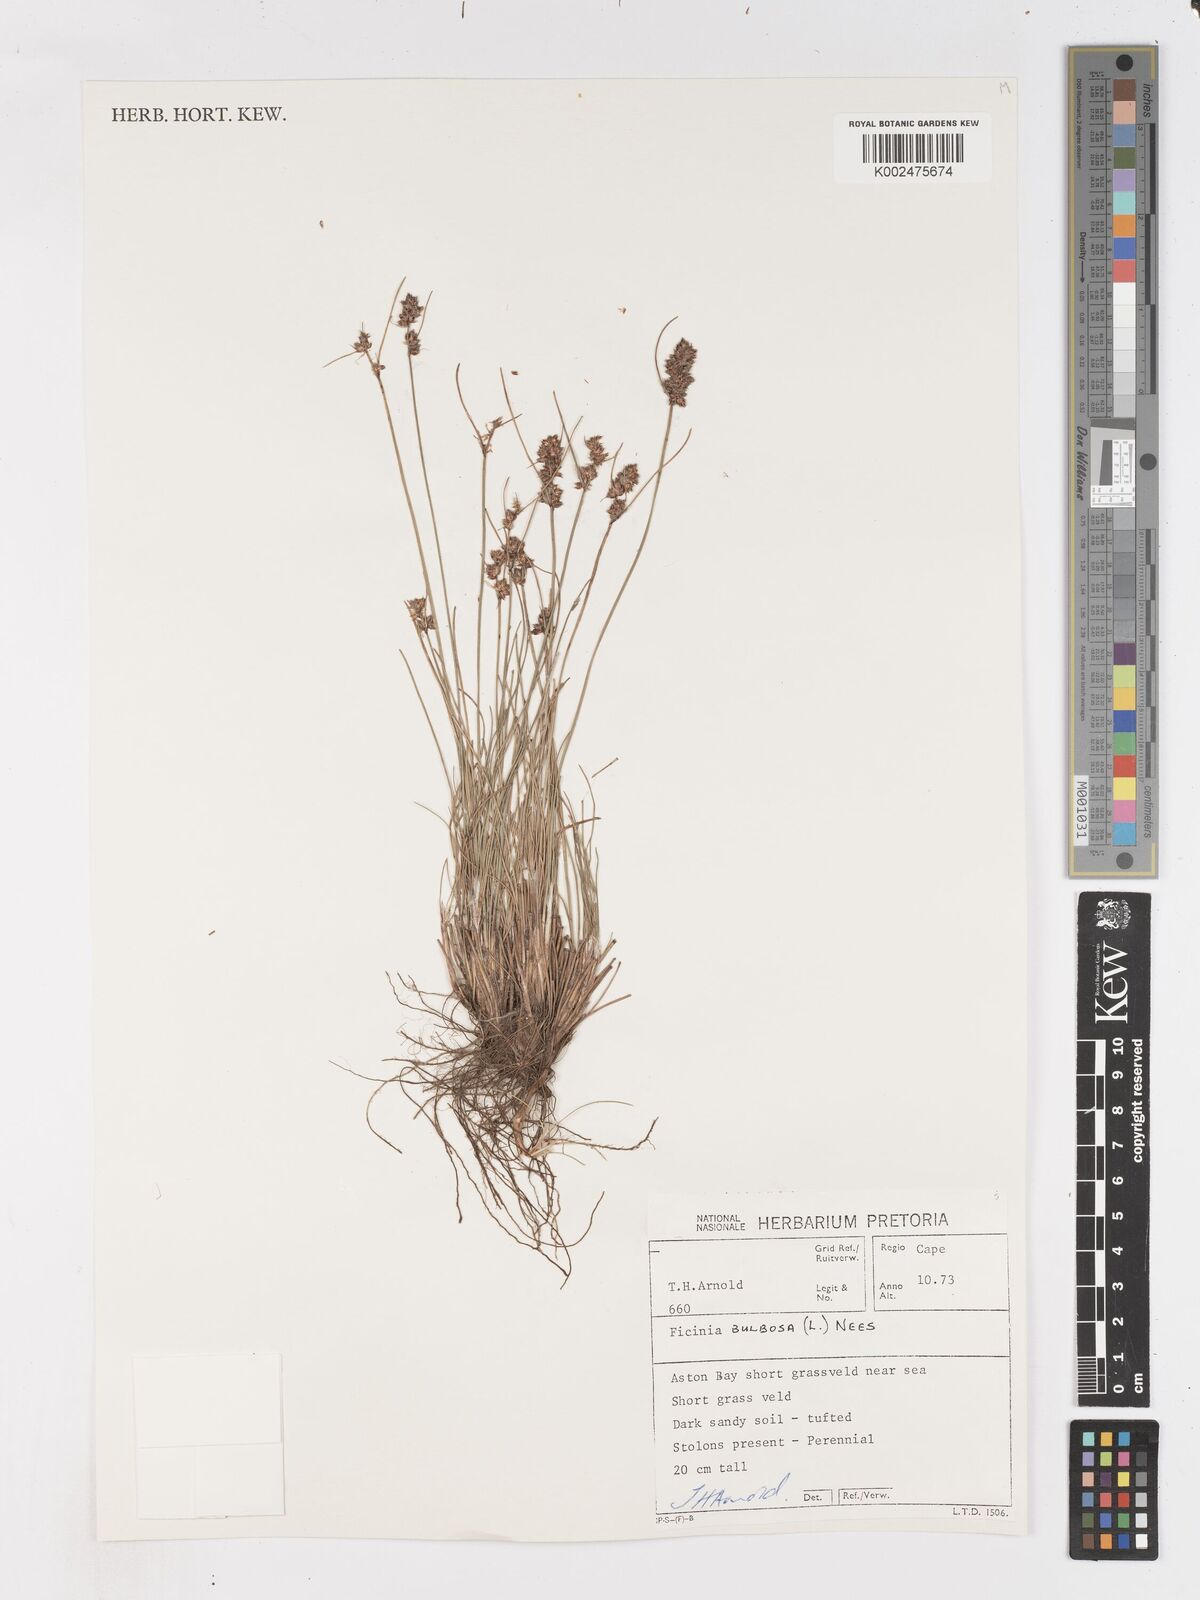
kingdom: Plantae
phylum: Tracheophyta
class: Liliopsida
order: Poales
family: Cyperaceae
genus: Ficinia
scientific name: Ficinia bulbosa
